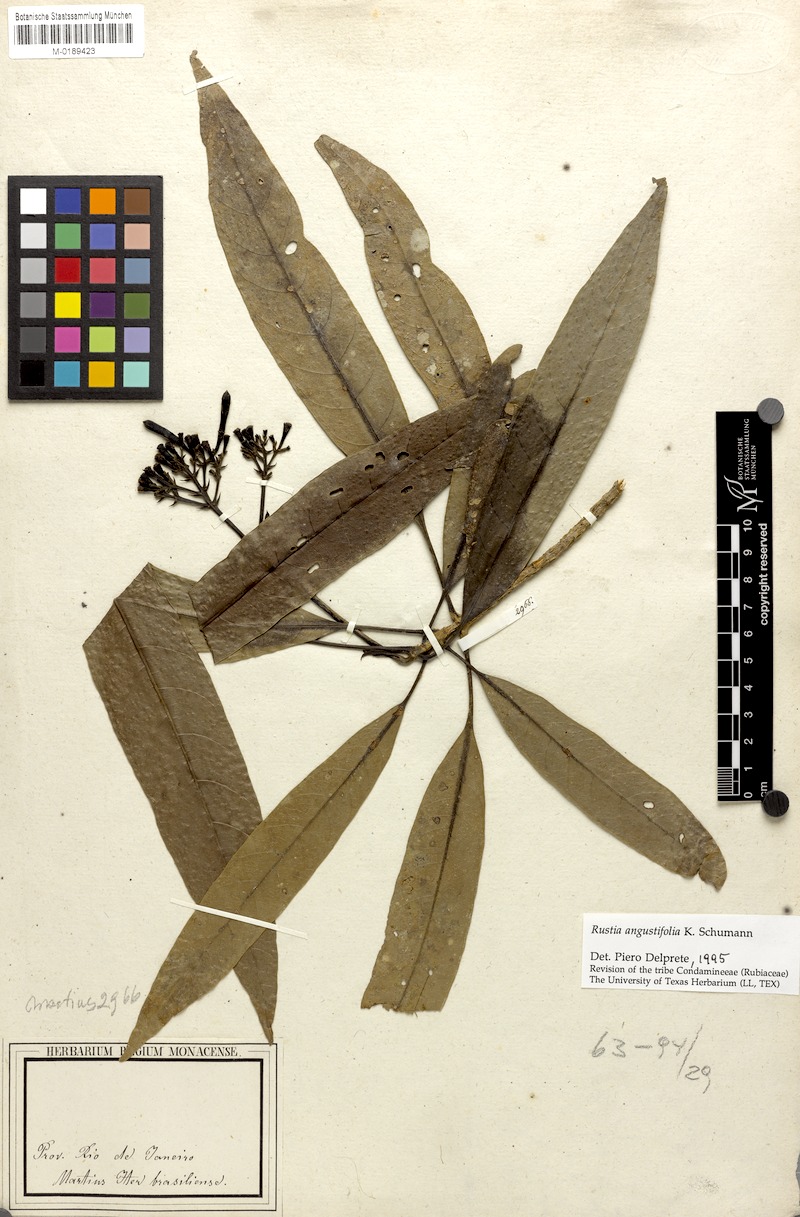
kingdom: Plantae
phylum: Tracheophyta
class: Magnoliopsida
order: Gentianales
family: Rubiaceae
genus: Rustia
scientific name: Rustia angustifolia
